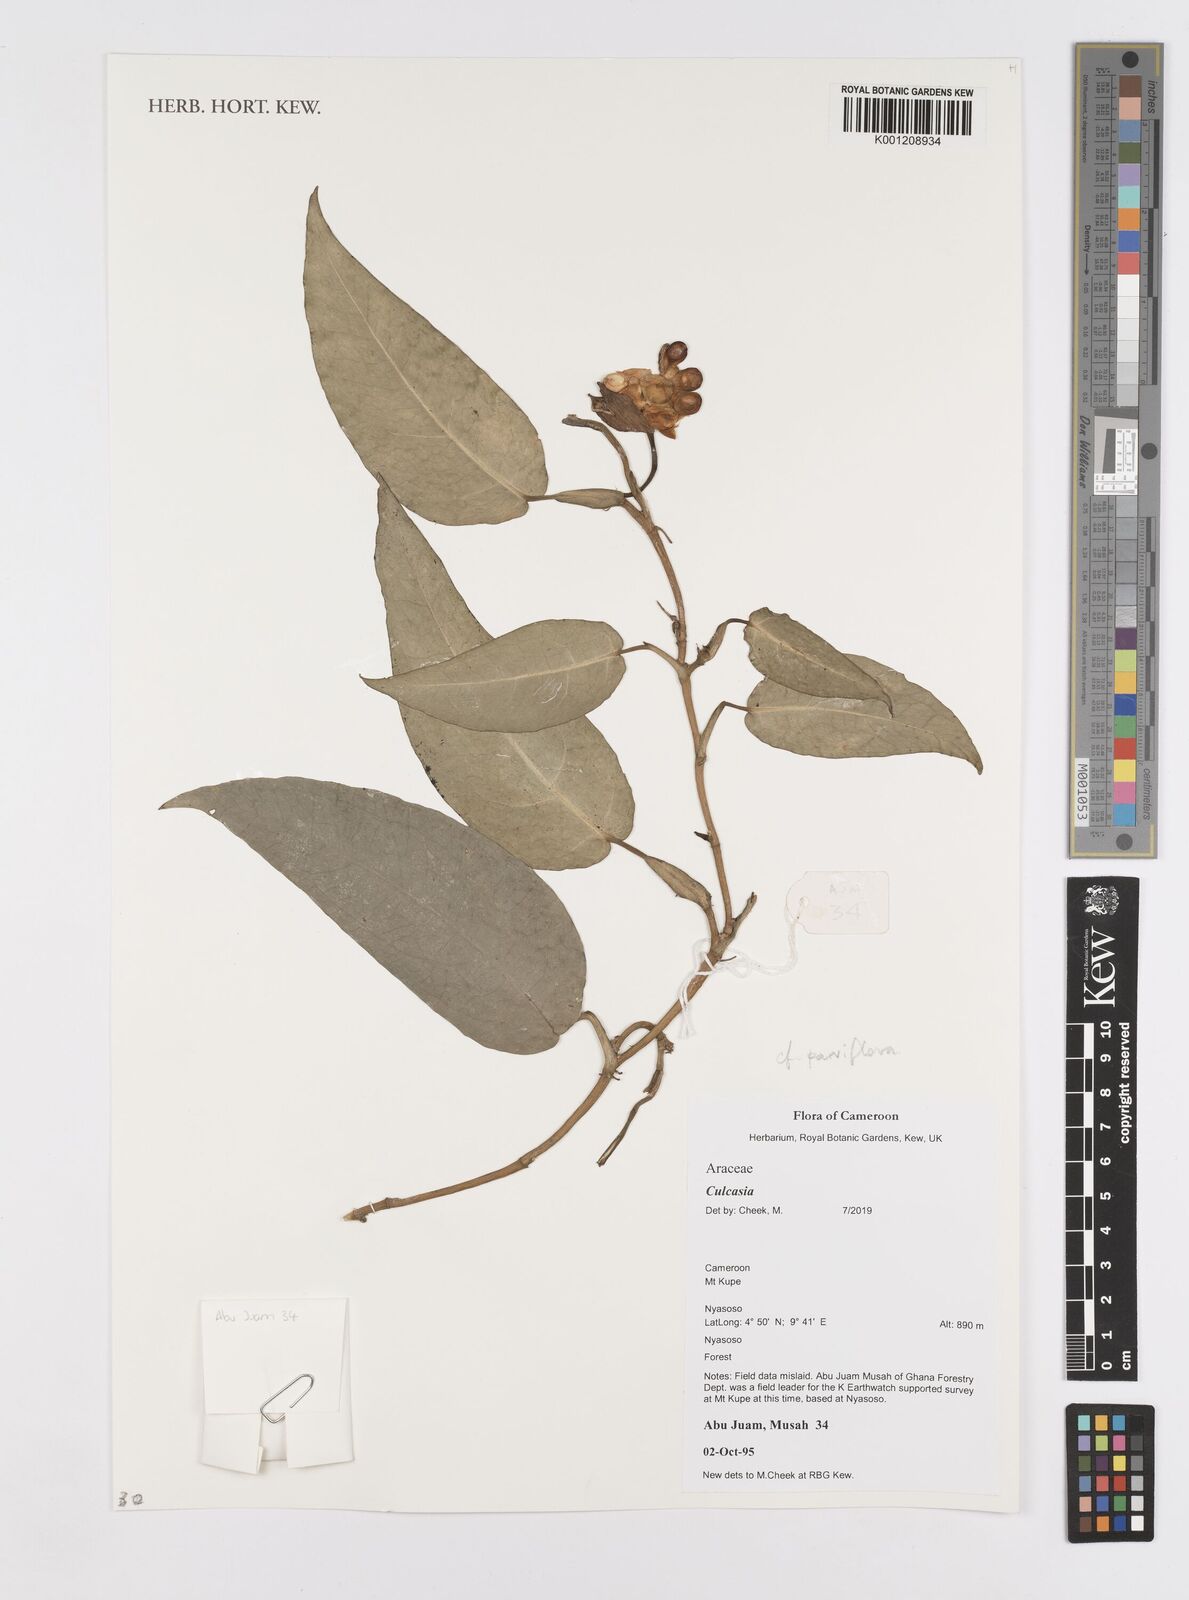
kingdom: Plantae
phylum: Tracheophyta
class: Liliopsida
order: Alismatales
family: Araceae
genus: Culcasia
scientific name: Culcasia parviflora
